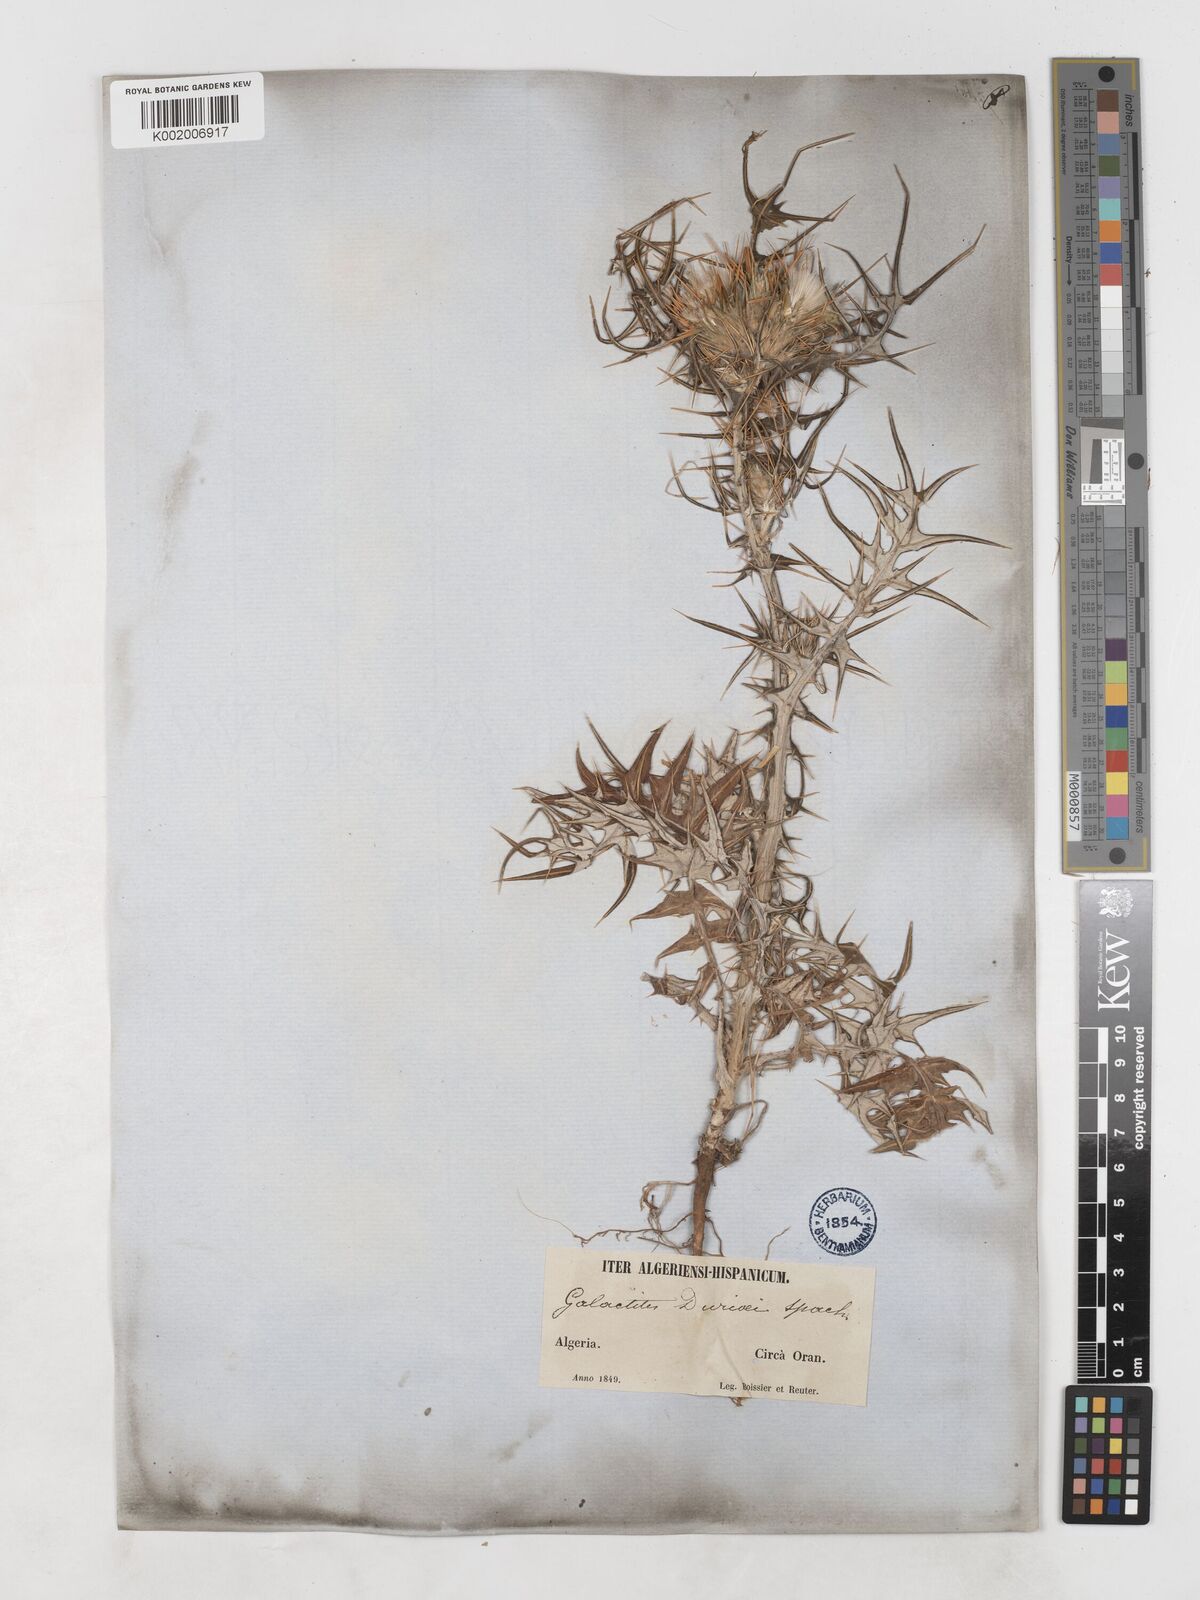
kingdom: Plantae
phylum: Tracheophyta
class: Magnoliopsida
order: Asterales
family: Asteraceae
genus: Galactites
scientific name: Galactites duriaei
